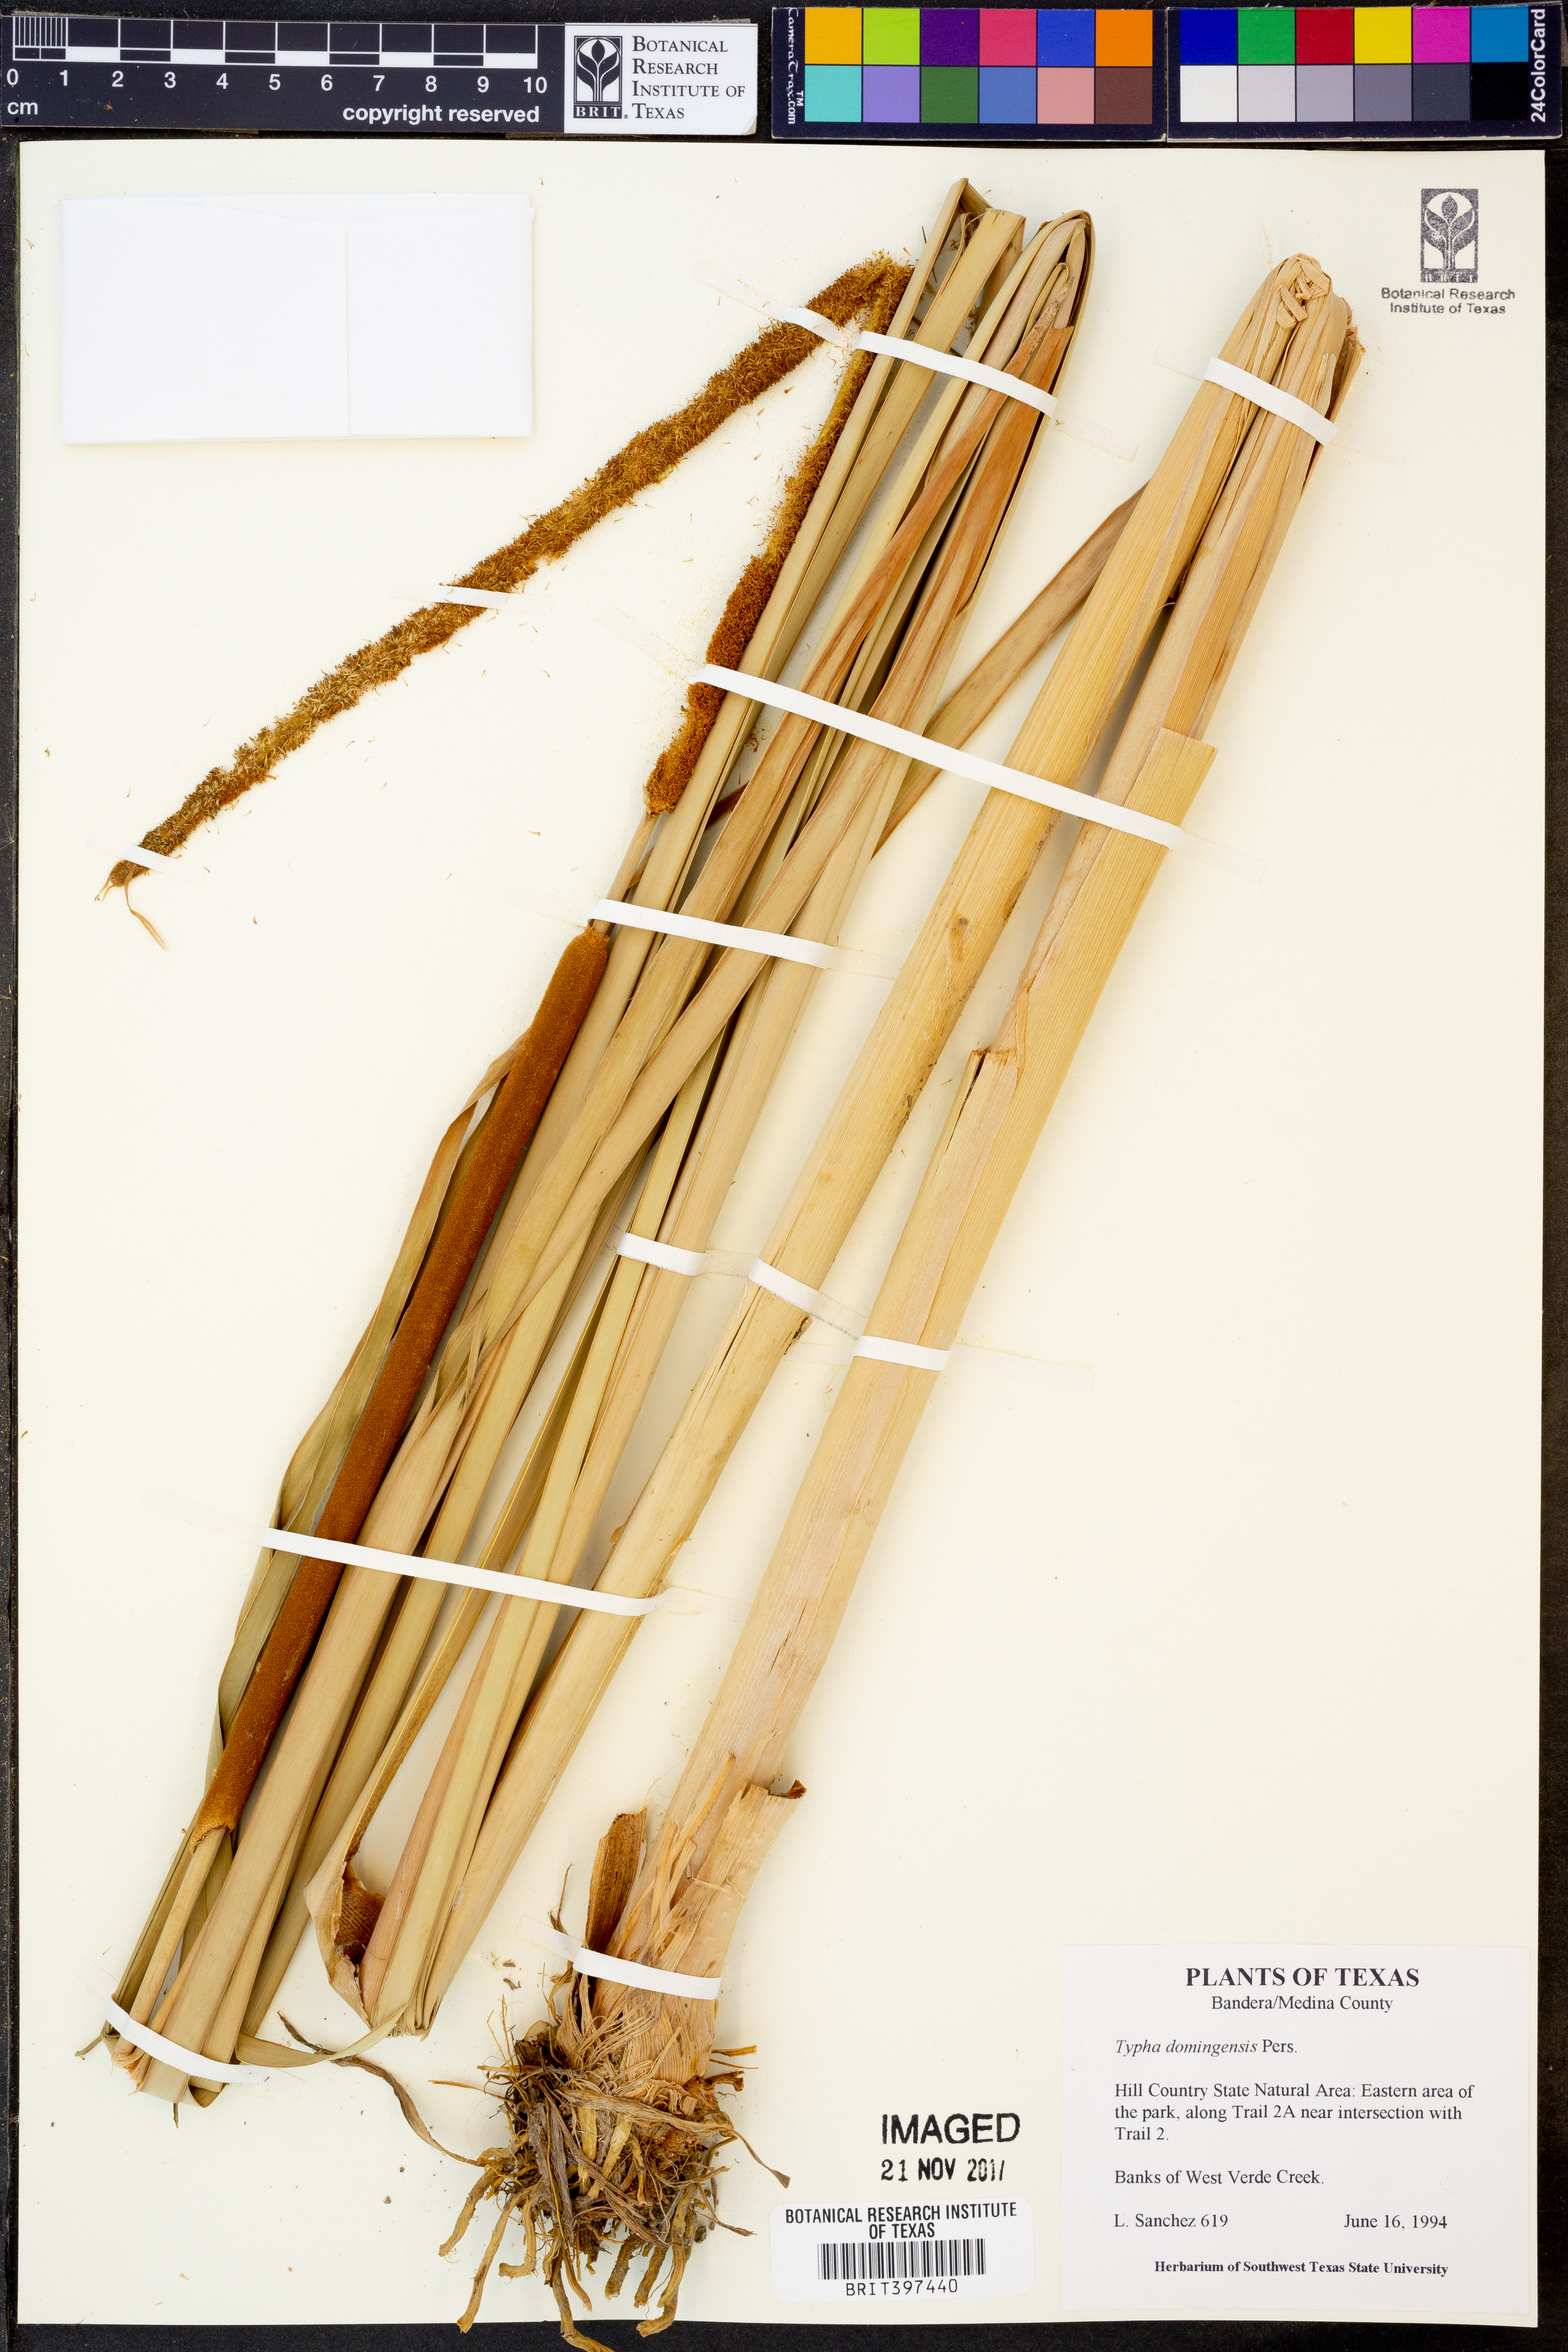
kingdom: Plantae
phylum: Tracheophyta
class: Liliopsida
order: Poales
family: Typhaceae
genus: Typha
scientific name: Typha domingensis
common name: Southern cattail
